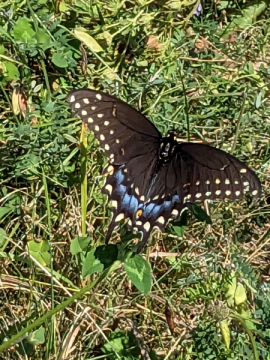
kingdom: Animalia
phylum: Arthropoda
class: Insecta
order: Lepidoptera
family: Papilionidae
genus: Papilio
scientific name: Papilio polyxenes
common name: Black Swallowtail
